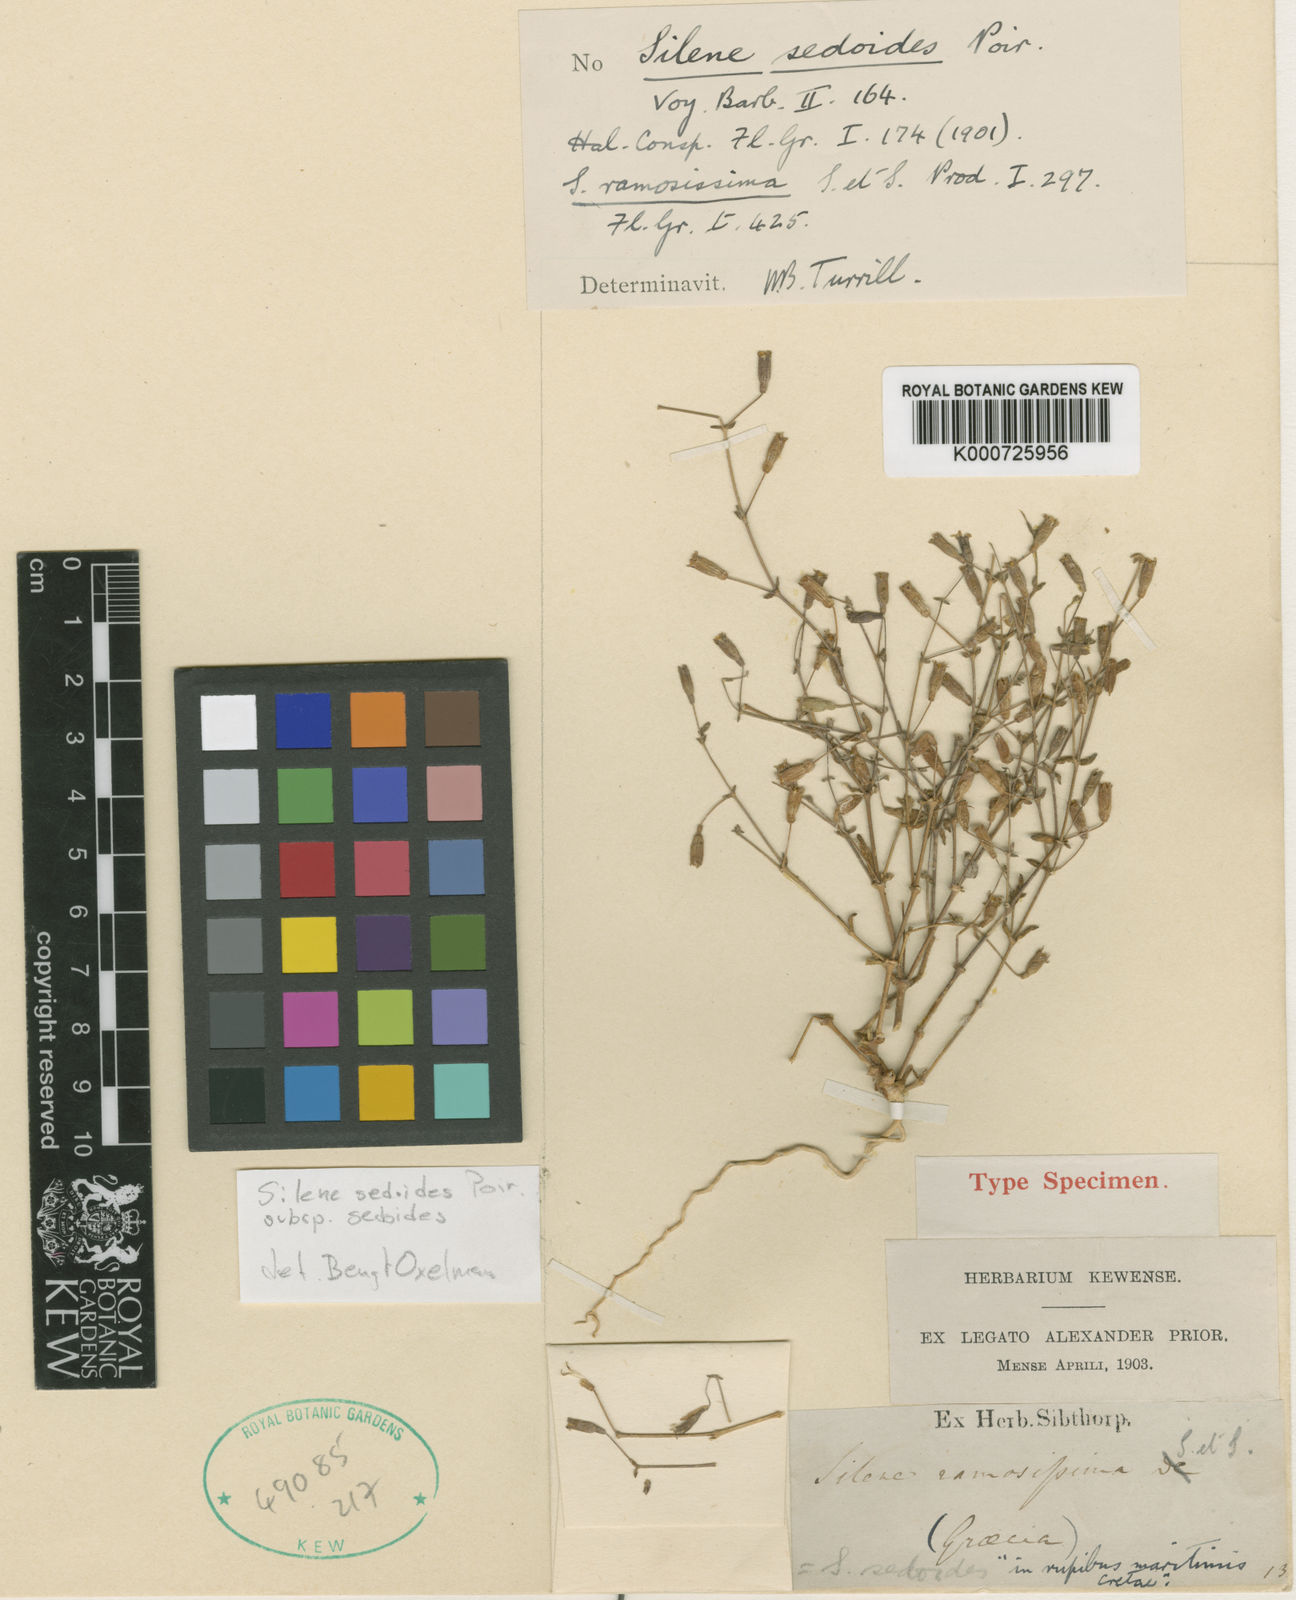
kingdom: Plantae
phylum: Tracheophyta
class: Magnoliopsida
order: Caryophyllales
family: Caryophyllaceae
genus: Silene
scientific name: Silene sedoides
